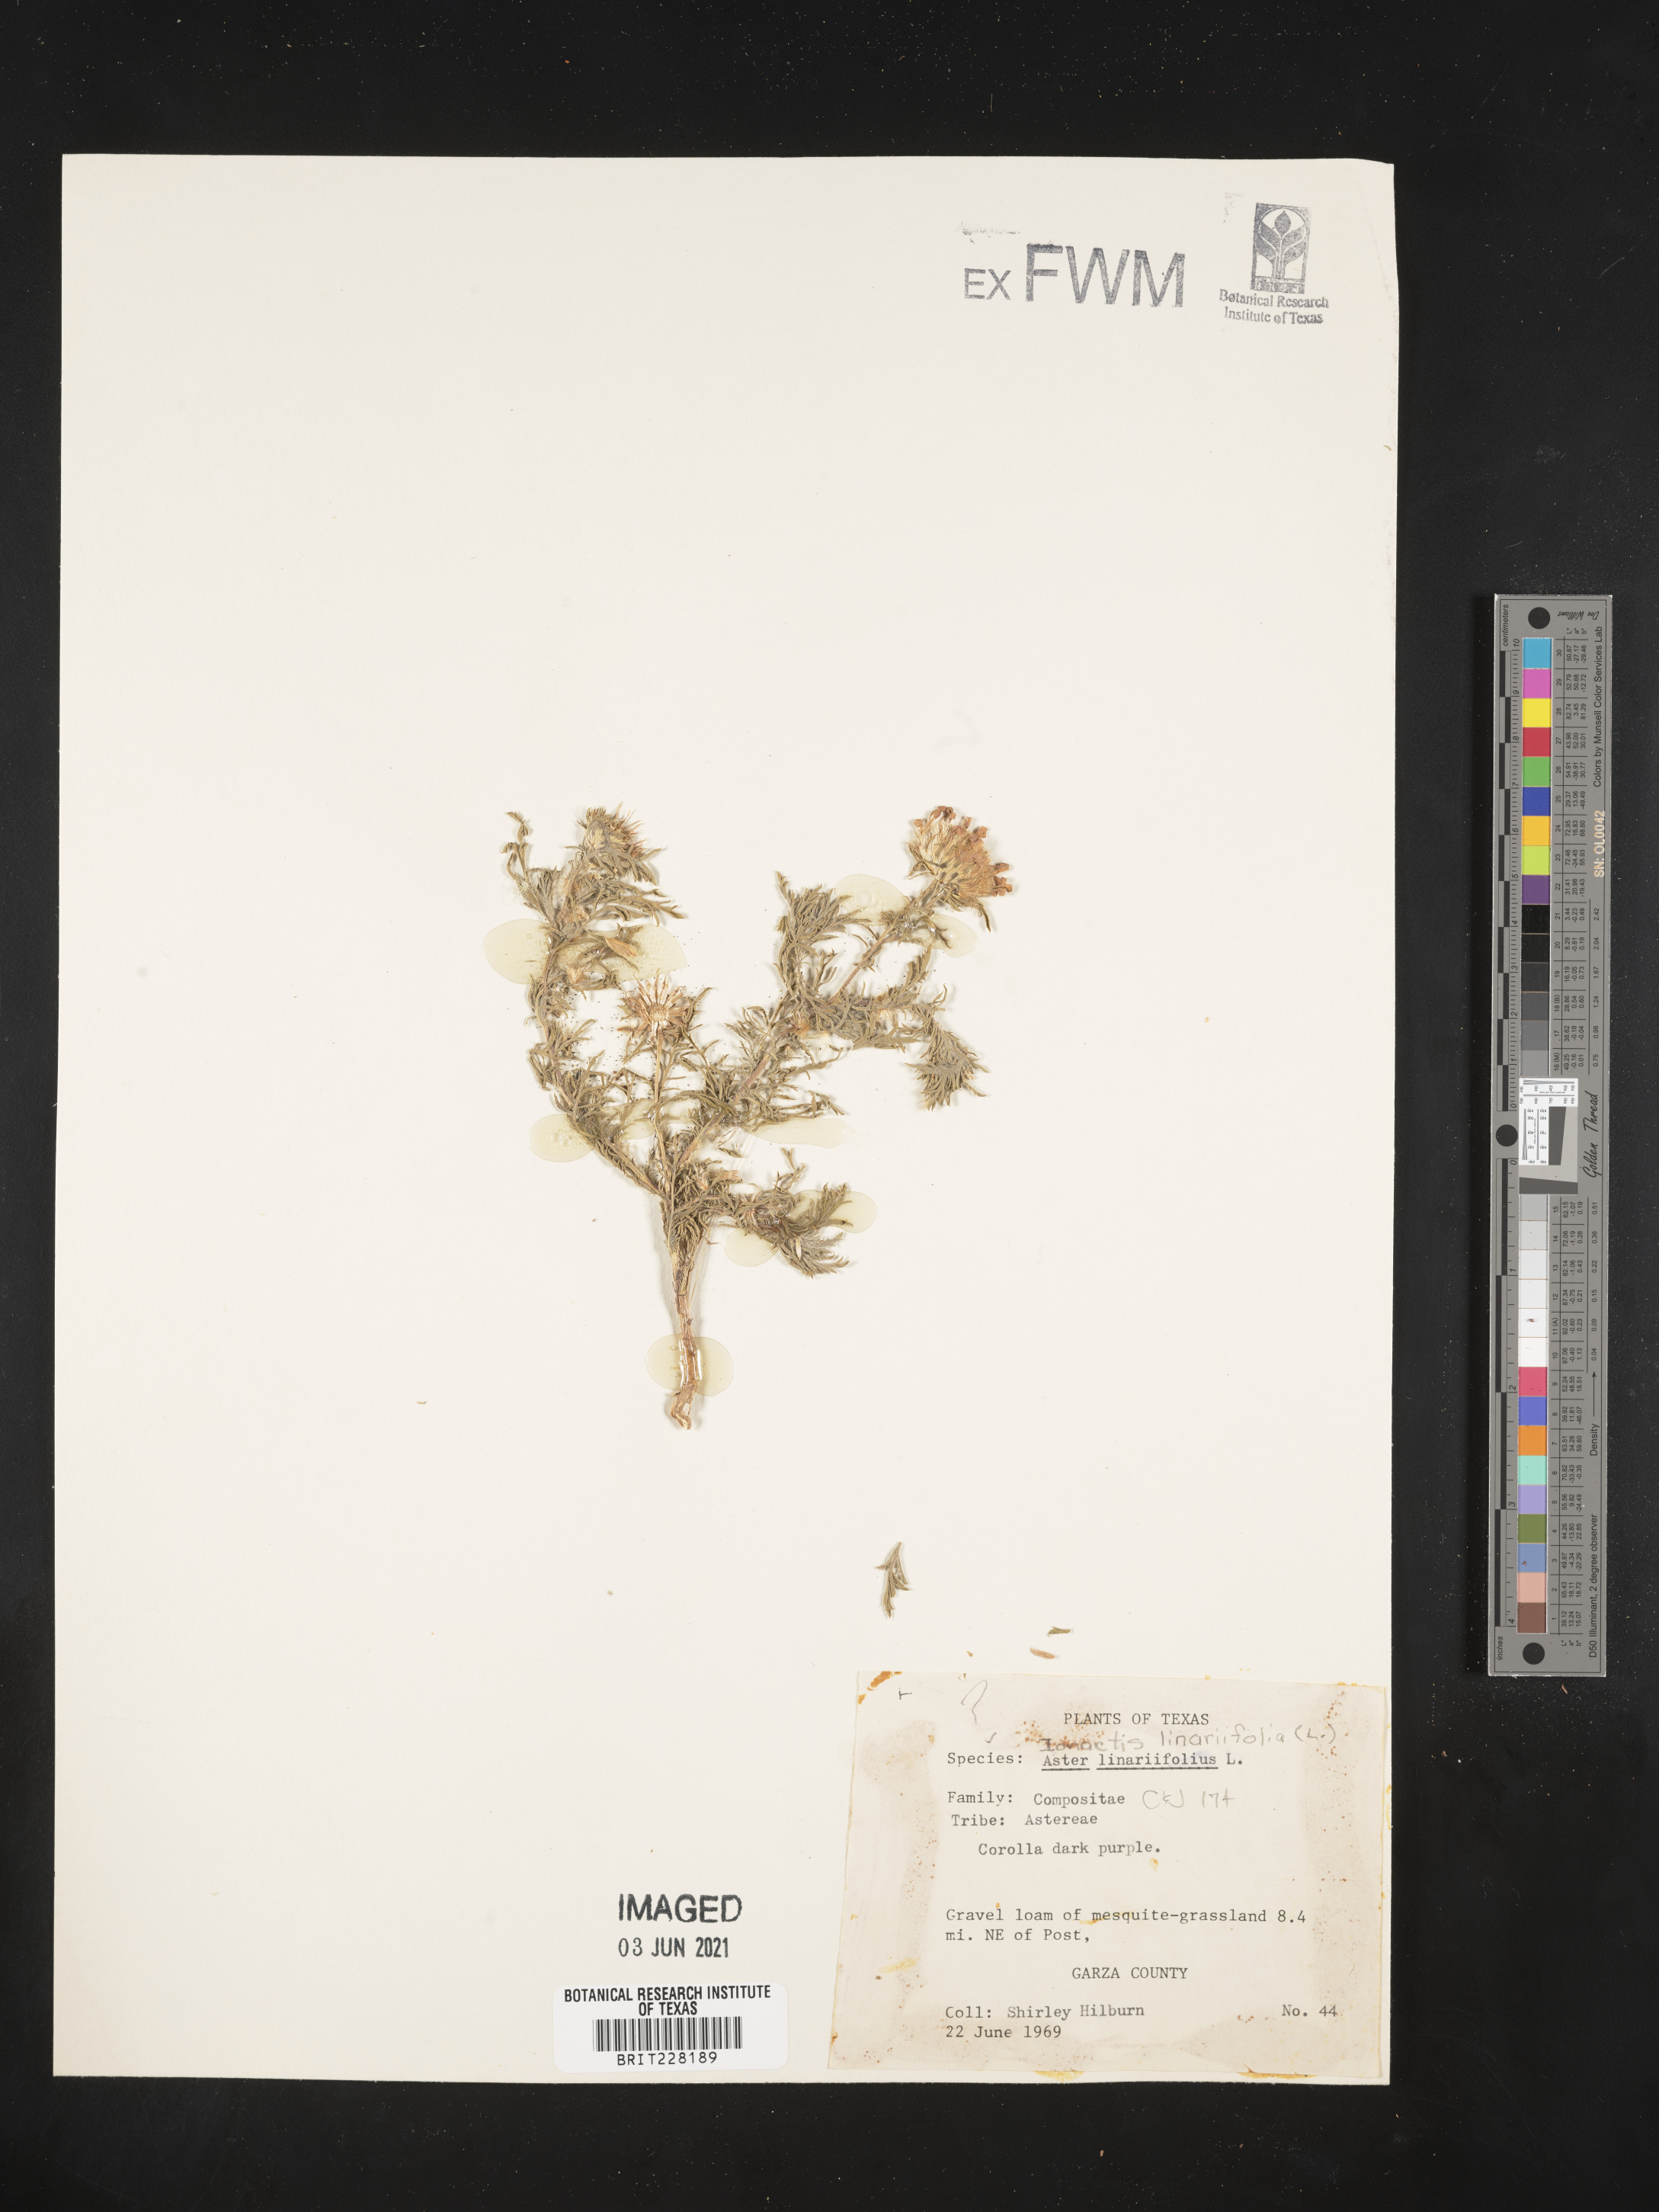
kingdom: Plantae
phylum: Tracheophyta
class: Magnoliopsida
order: Asterales
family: Asteraceae
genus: Ionactis
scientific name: Ionactis linariifolia
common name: Flax-leaf aster
